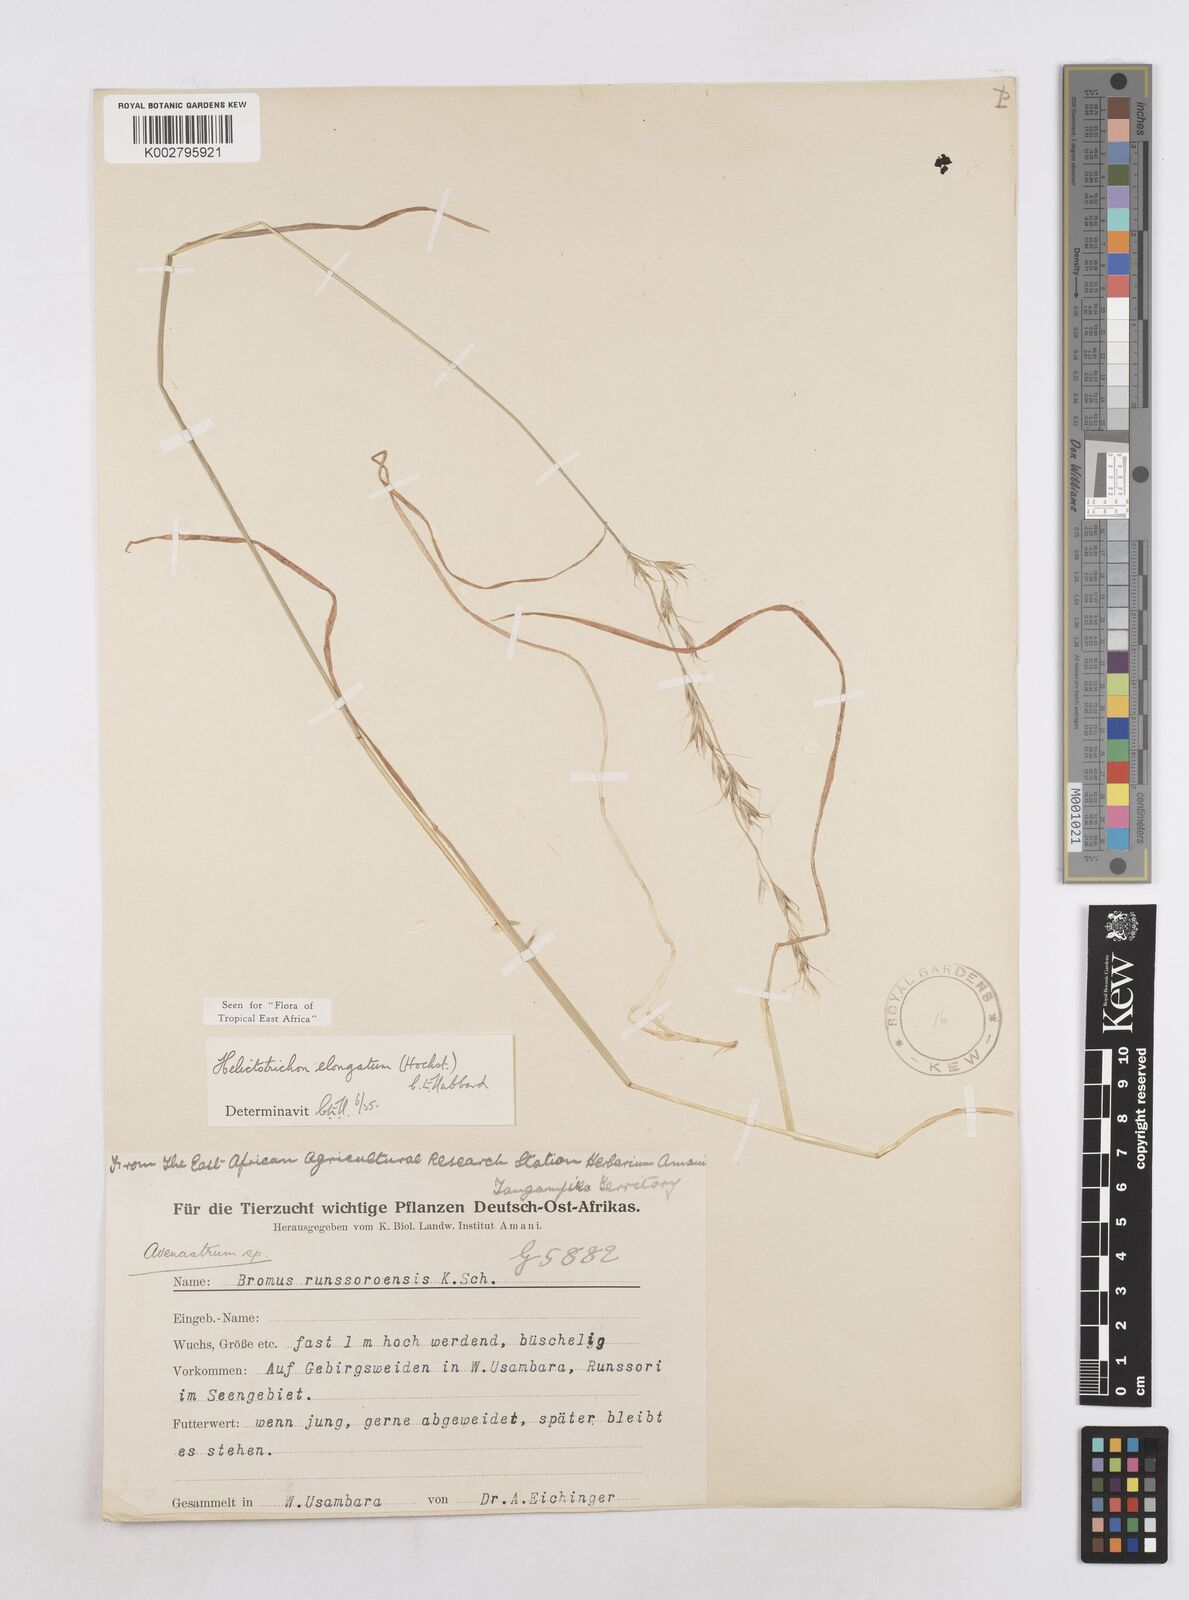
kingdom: Plantae
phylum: Tracheophyta
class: Liliopsida
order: Poales
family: Poaceae
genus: Trisetopsis
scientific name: Trisetopsis elongata
